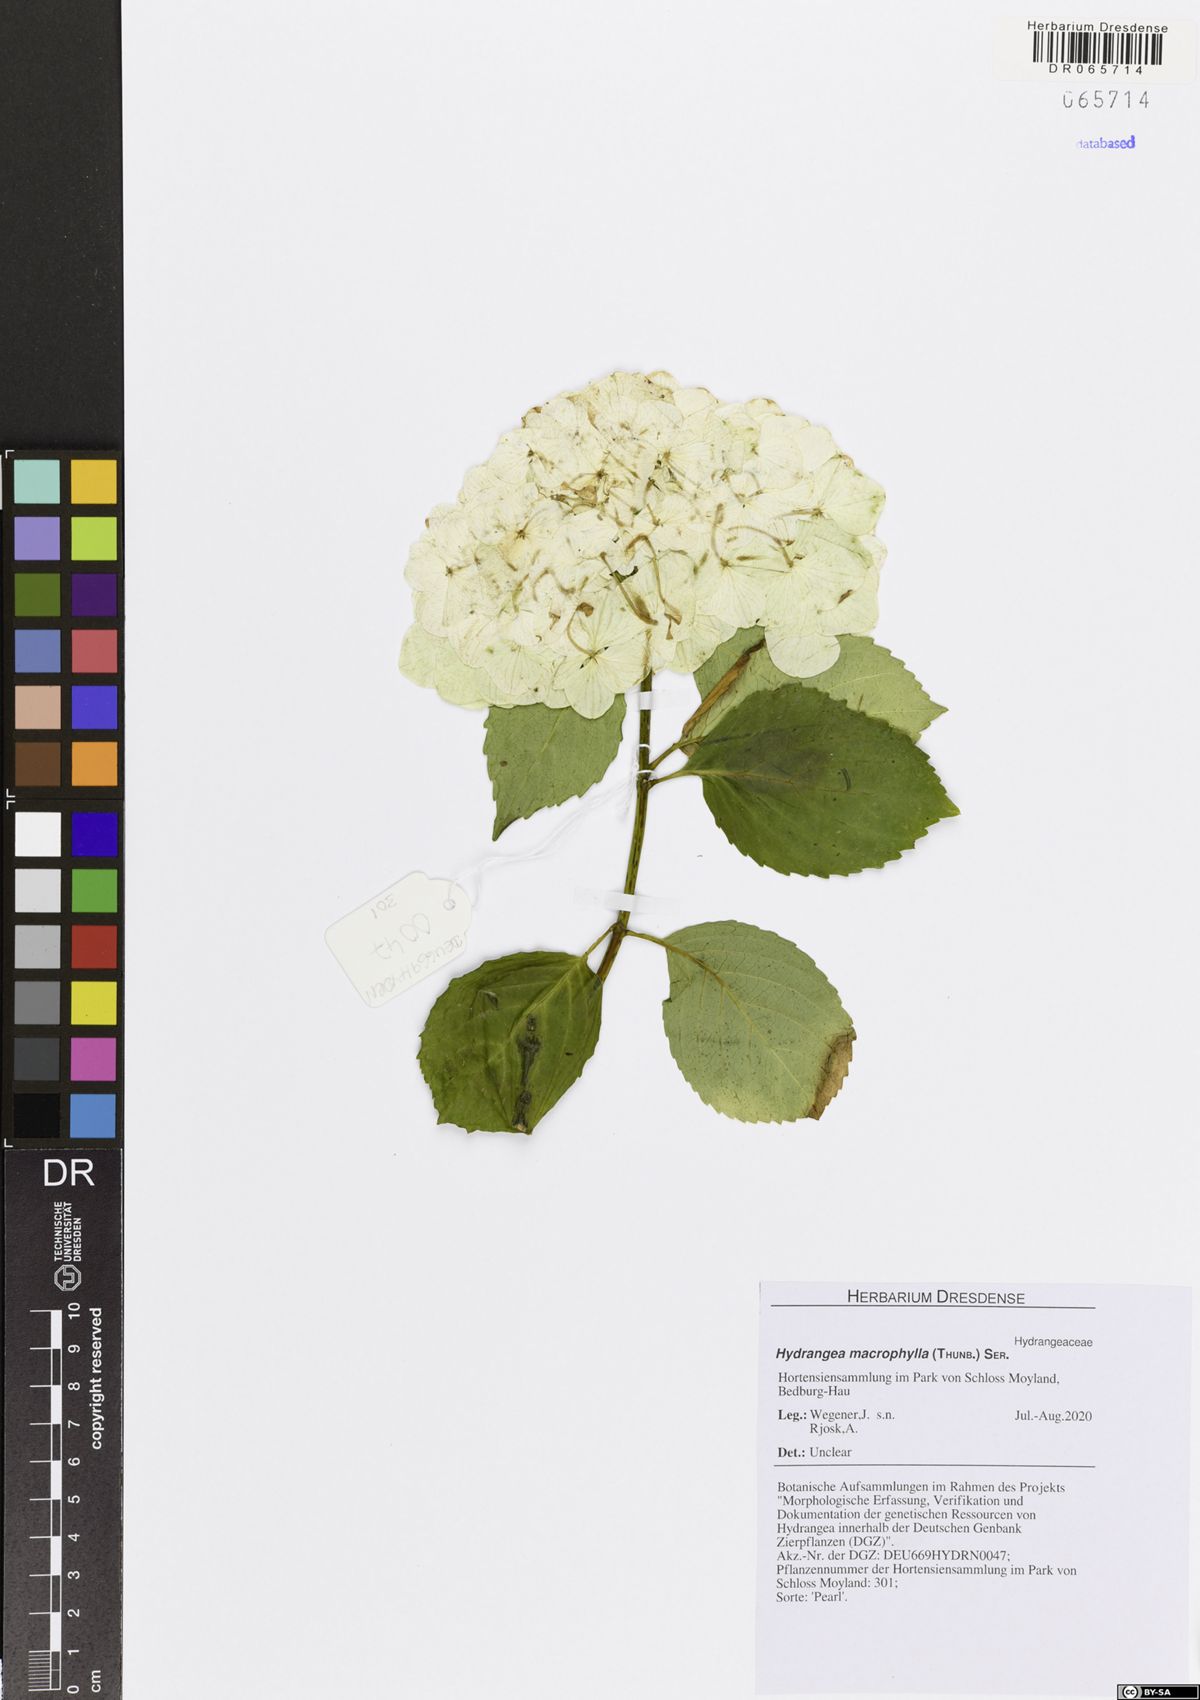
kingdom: Plantae
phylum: Tracheophyta
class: Magnoliopsida
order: Cornales
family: Hydrangeaceae
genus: Hydrangea
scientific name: Hydrangea macrophylla
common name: Hydrangea
